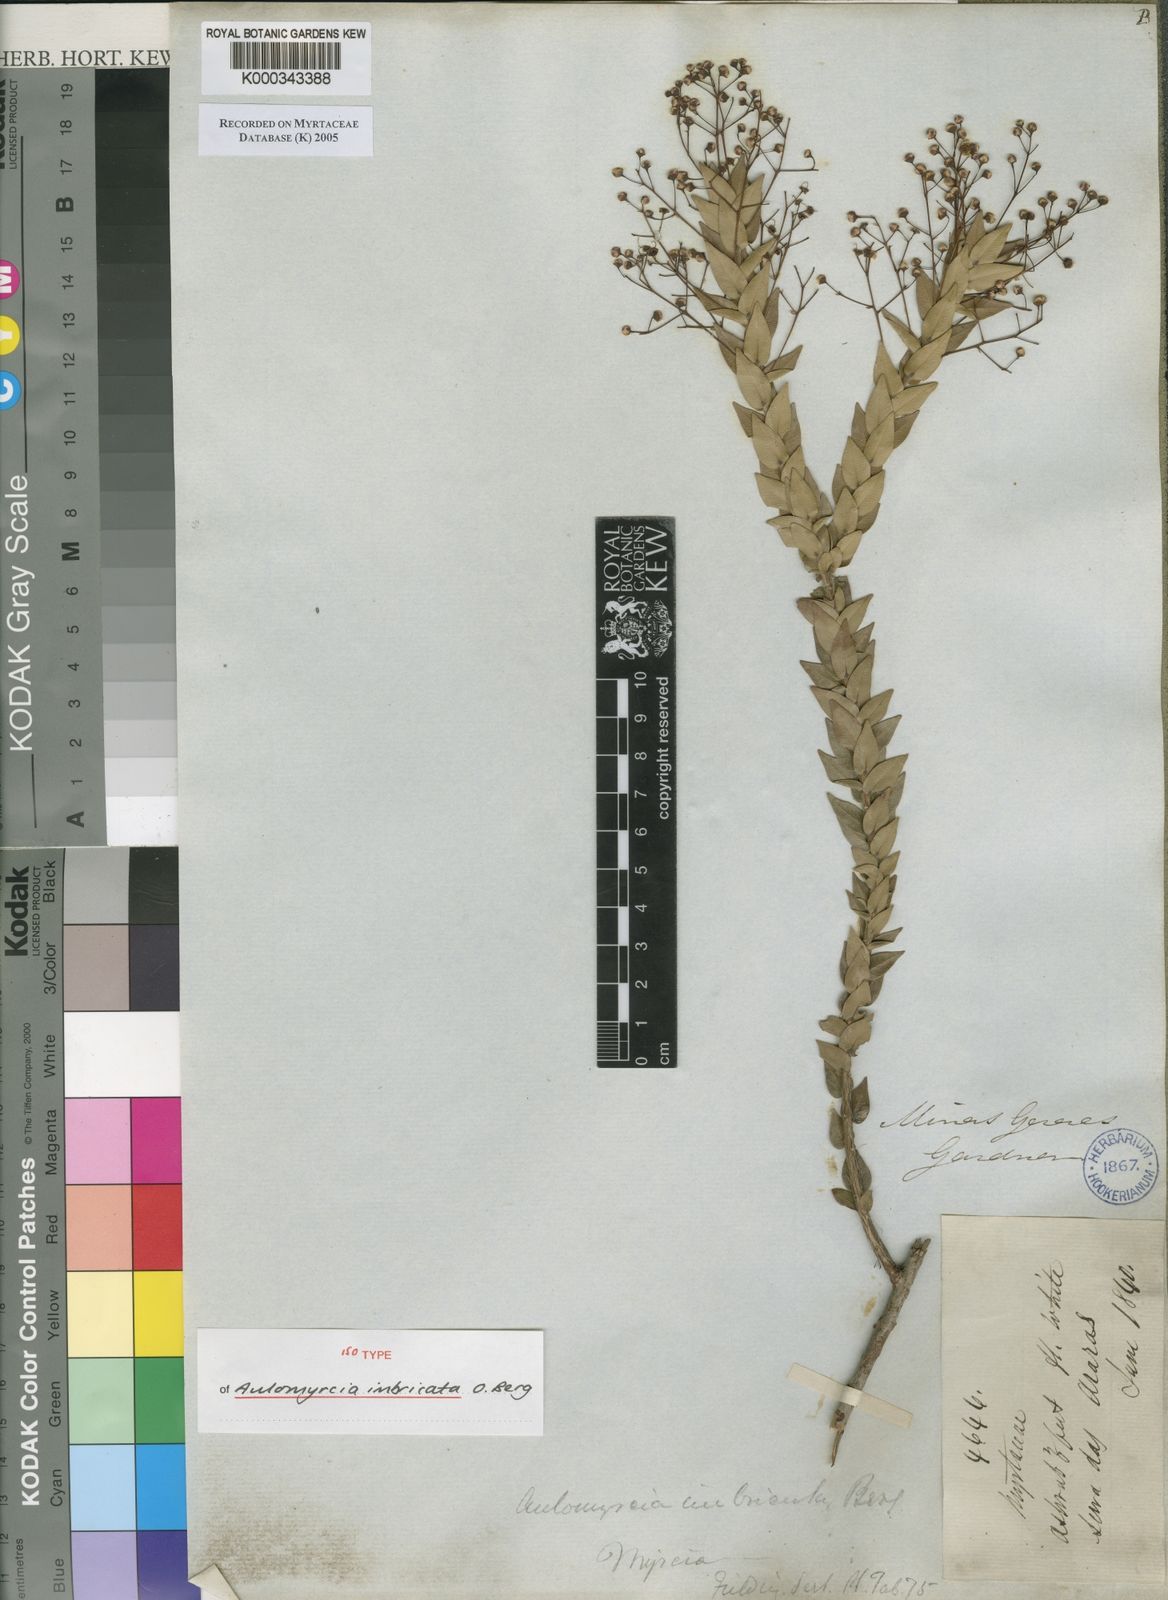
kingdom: Plantae
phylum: Tracheophyta
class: Magnoliopsida
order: Myrtales
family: Myrtaceae
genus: Myrcia
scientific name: Myrcia racemulosa
